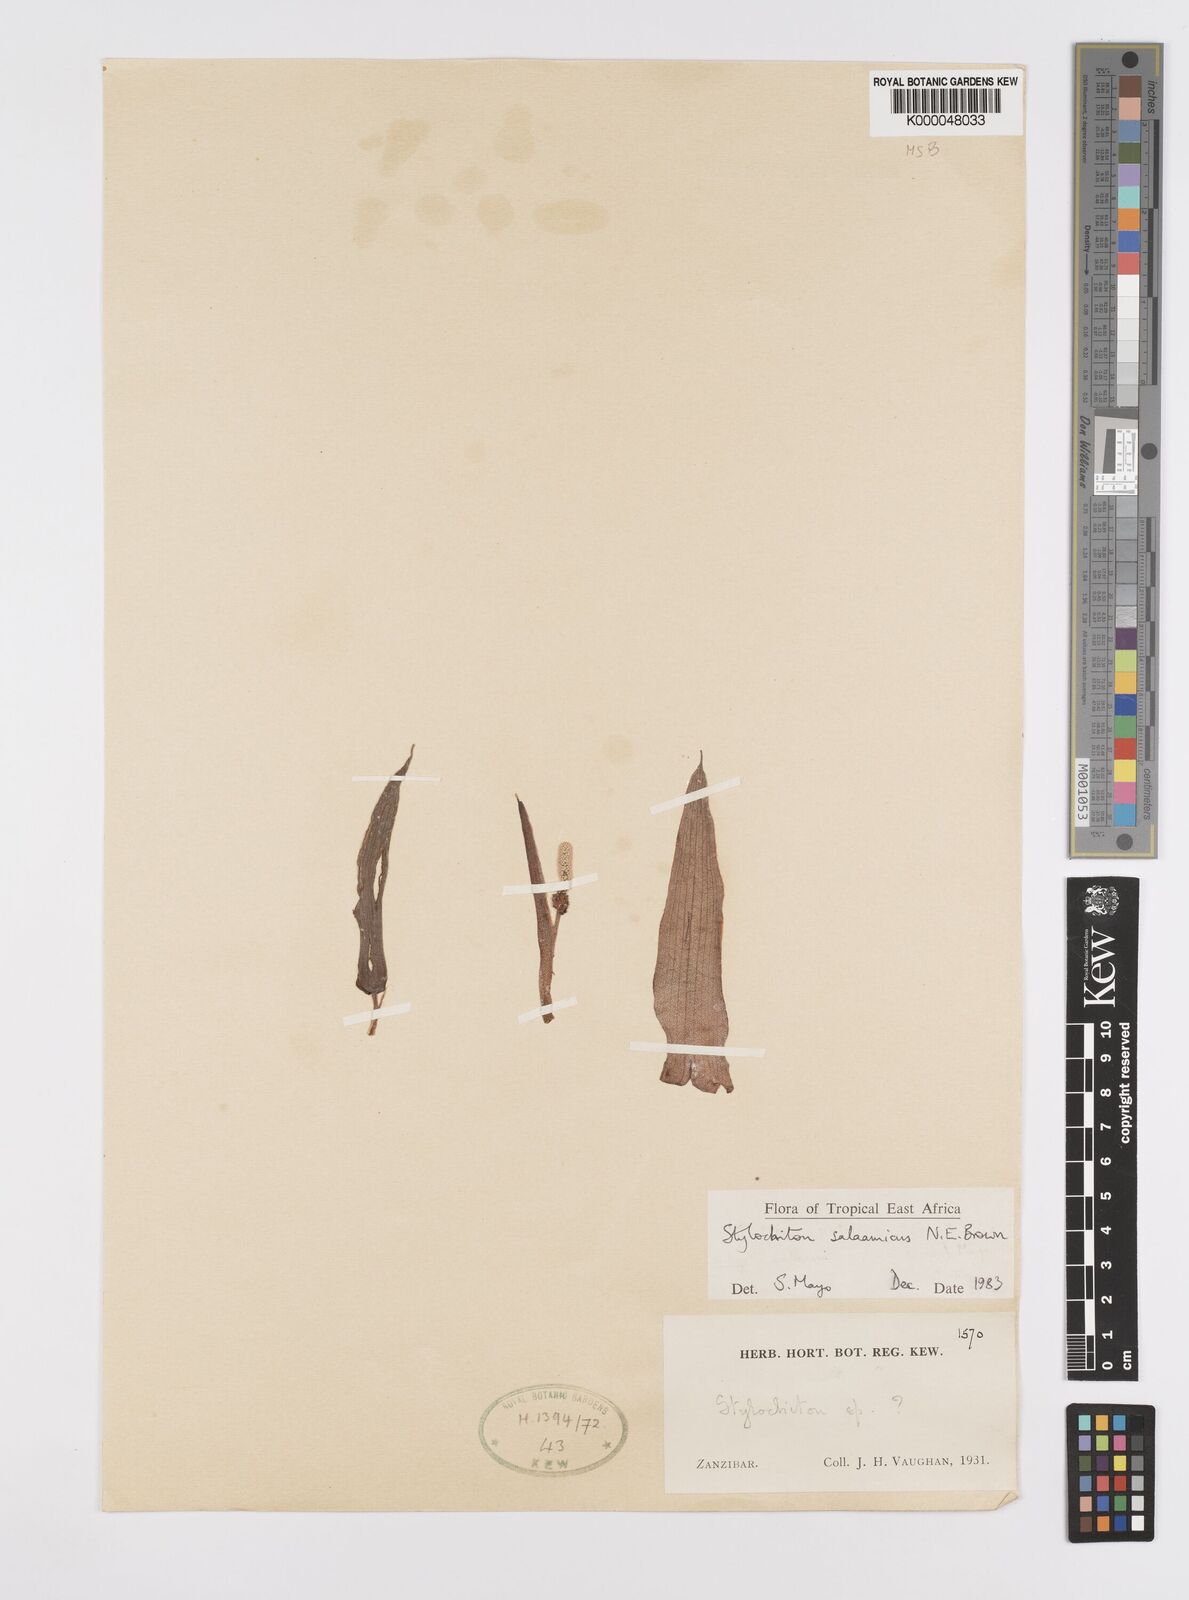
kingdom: Plantae
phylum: Tracheophyta
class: Liliopsida
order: Alismatales
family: Araceae
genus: Stylochaeton
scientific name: Stylochaeton salaamicum
